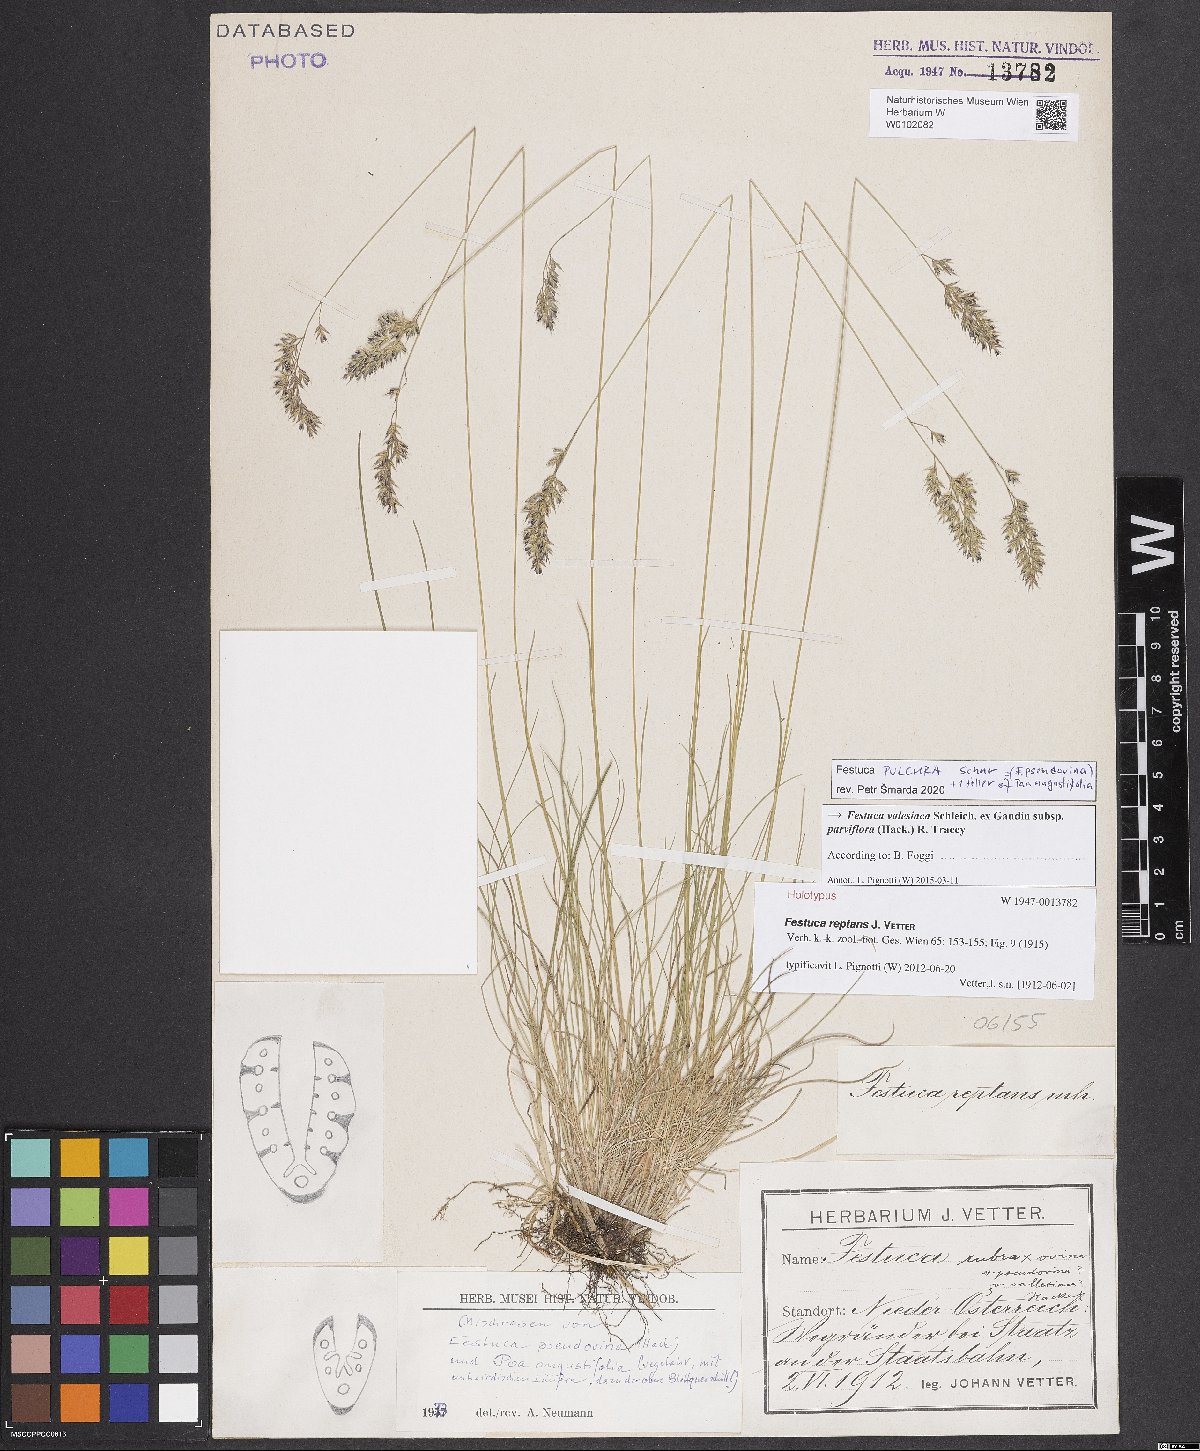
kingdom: Plantae
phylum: Tracheophyta
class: Liliopsida
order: Poales
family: Poaceae
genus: Festuca
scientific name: Festuca valesiaca
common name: Volga fescue
